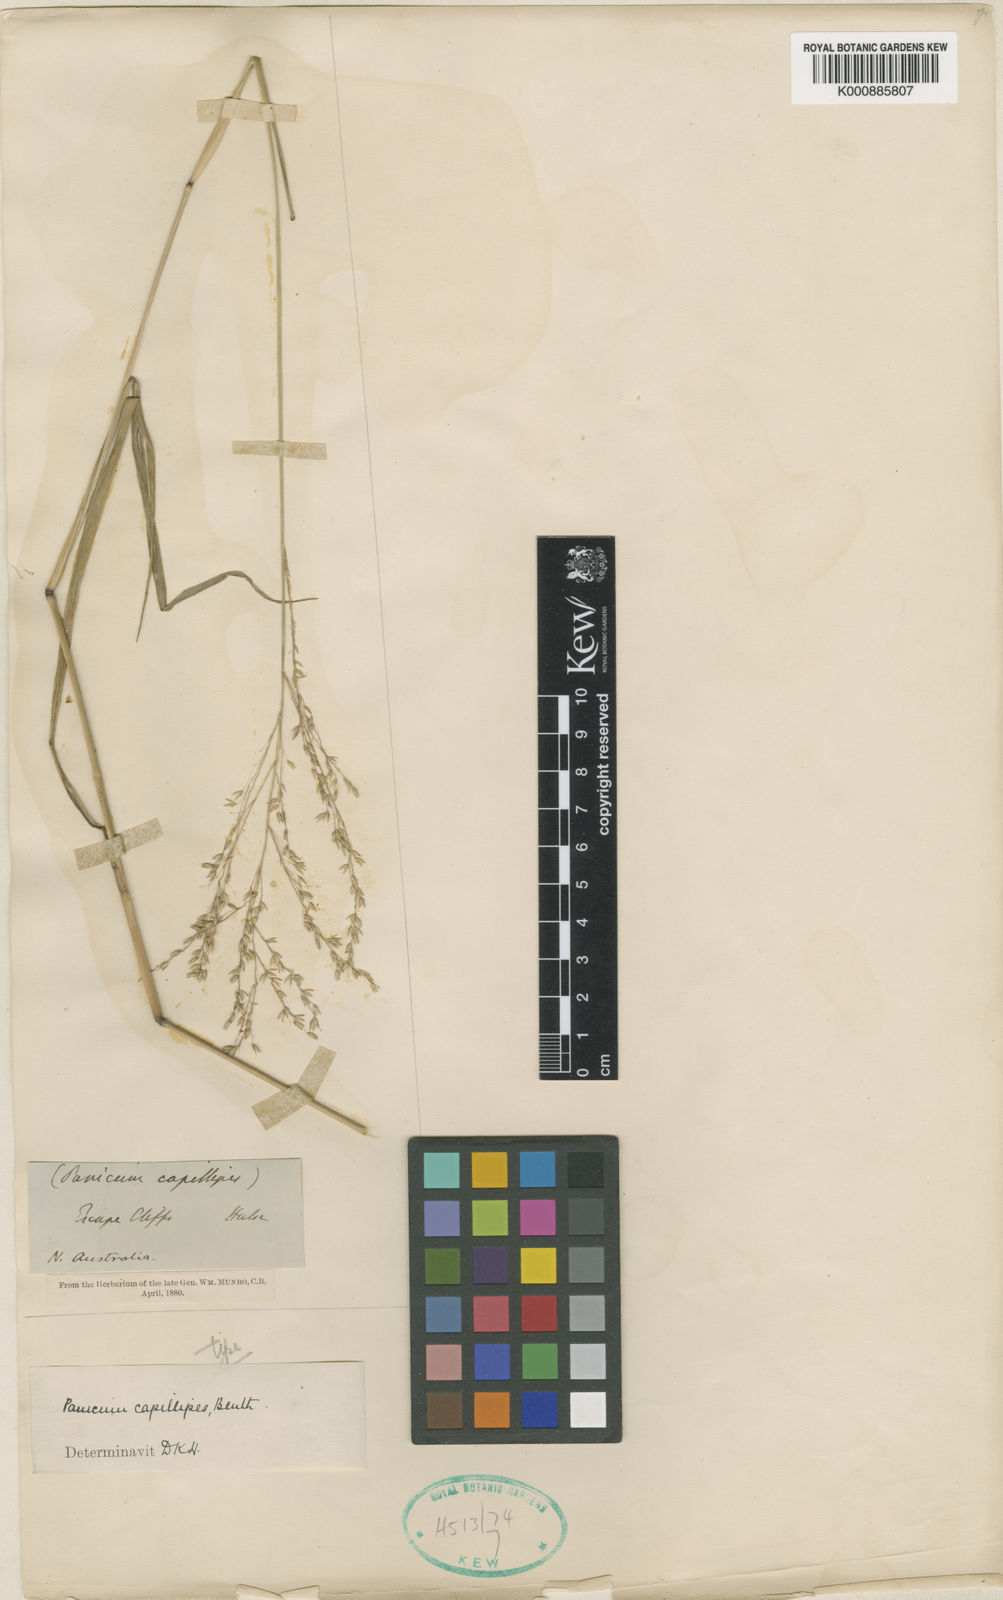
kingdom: Plantae
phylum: Tracheophyta
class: Liliopsida
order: Poales
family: Poaceae
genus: Whiteochloa
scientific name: Whiteochloa capillipes
